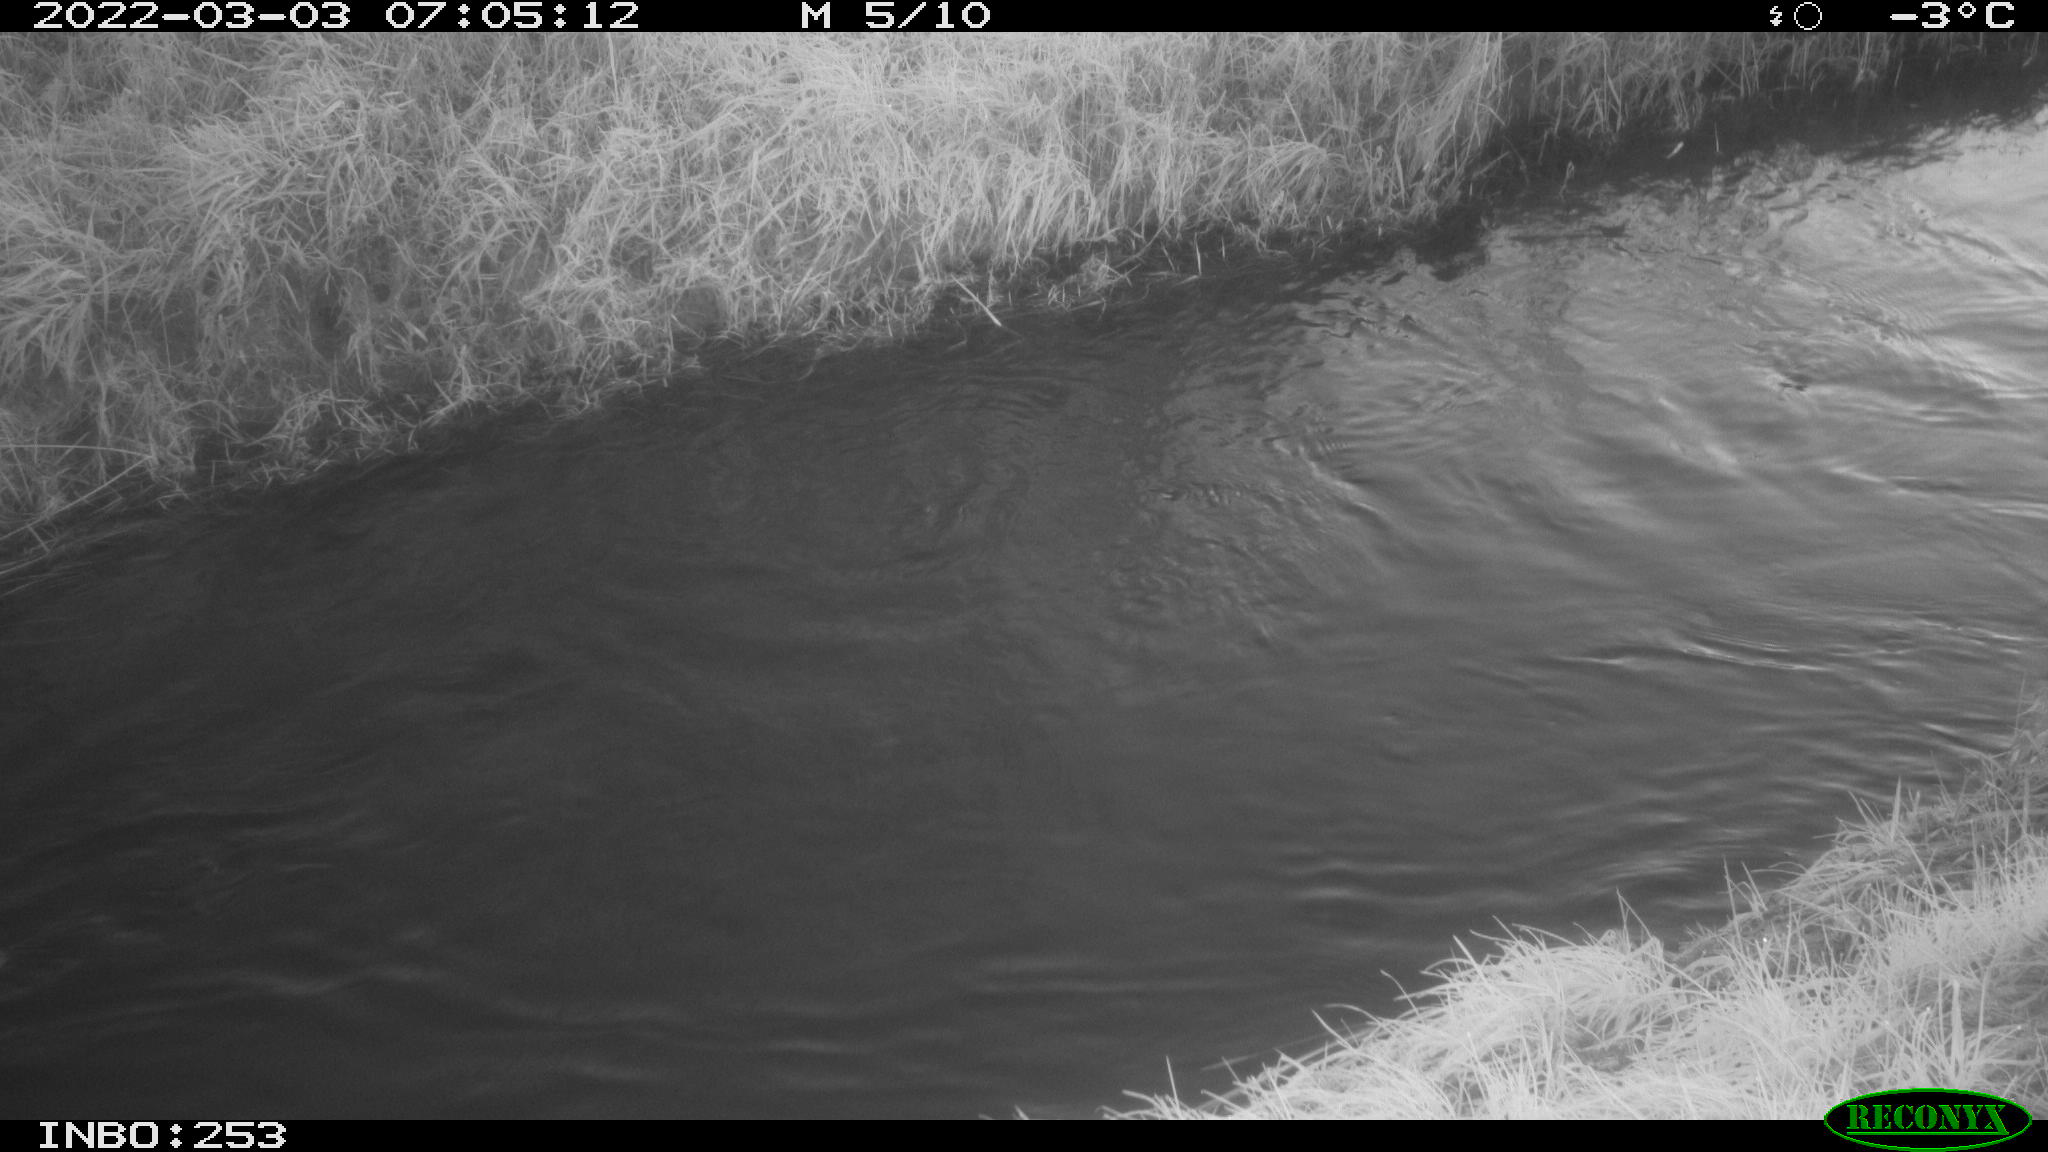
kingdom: Animalia
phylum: Chordata
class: Aves
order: Anseriformes
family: Anatidae
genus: Anas
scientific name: Anas platyrhynchos
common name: Mallard
